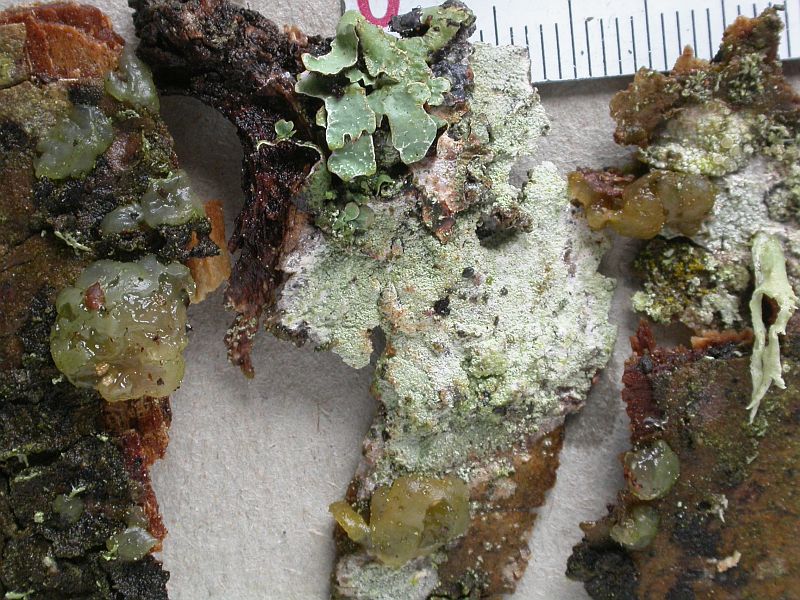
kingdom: Fungi
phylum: Basidiomycota
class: Agaricomycetes
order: Auriculariales
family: Hyaloriaceae
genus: Myxarium
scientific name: Myxarium nucleatum
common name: klar bævretop
